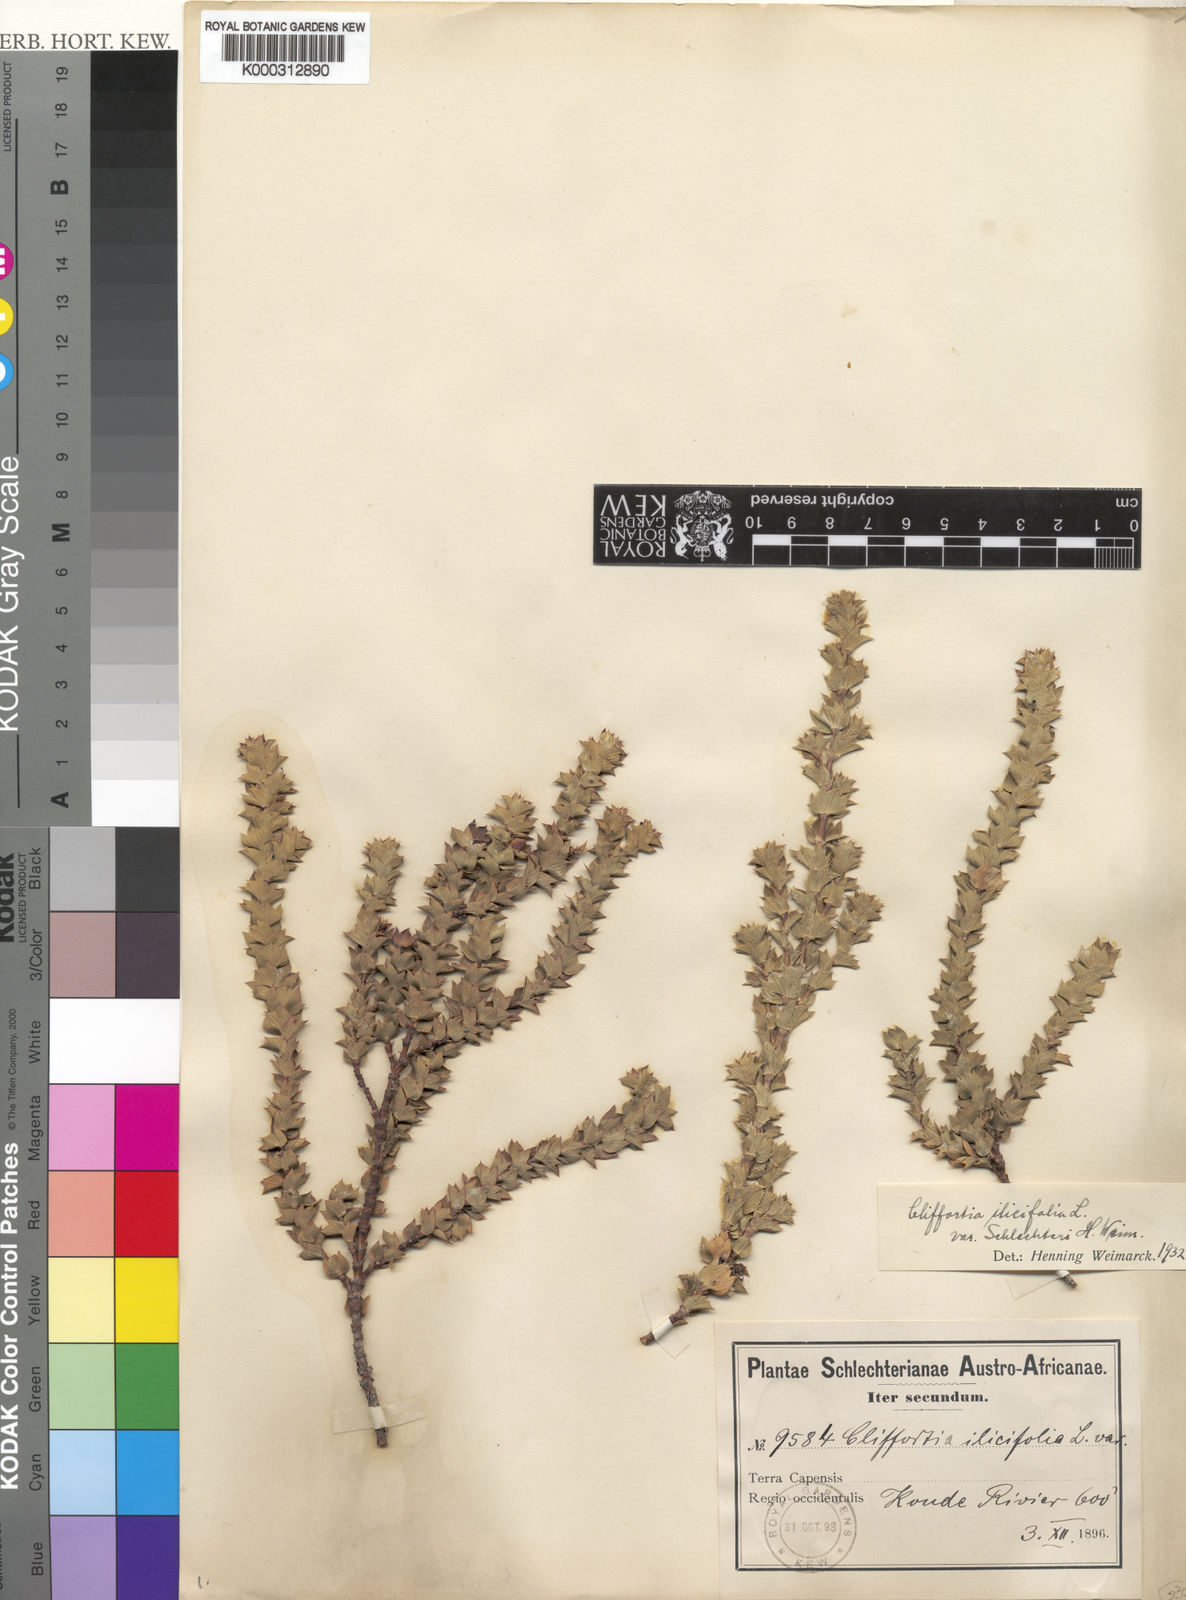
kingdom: Plantae
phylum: Tracheophyta
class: Magnoliopsida
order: Rosales
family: Rosaceae
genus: Cliffortia
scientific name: Cliffortia ilicifolia
